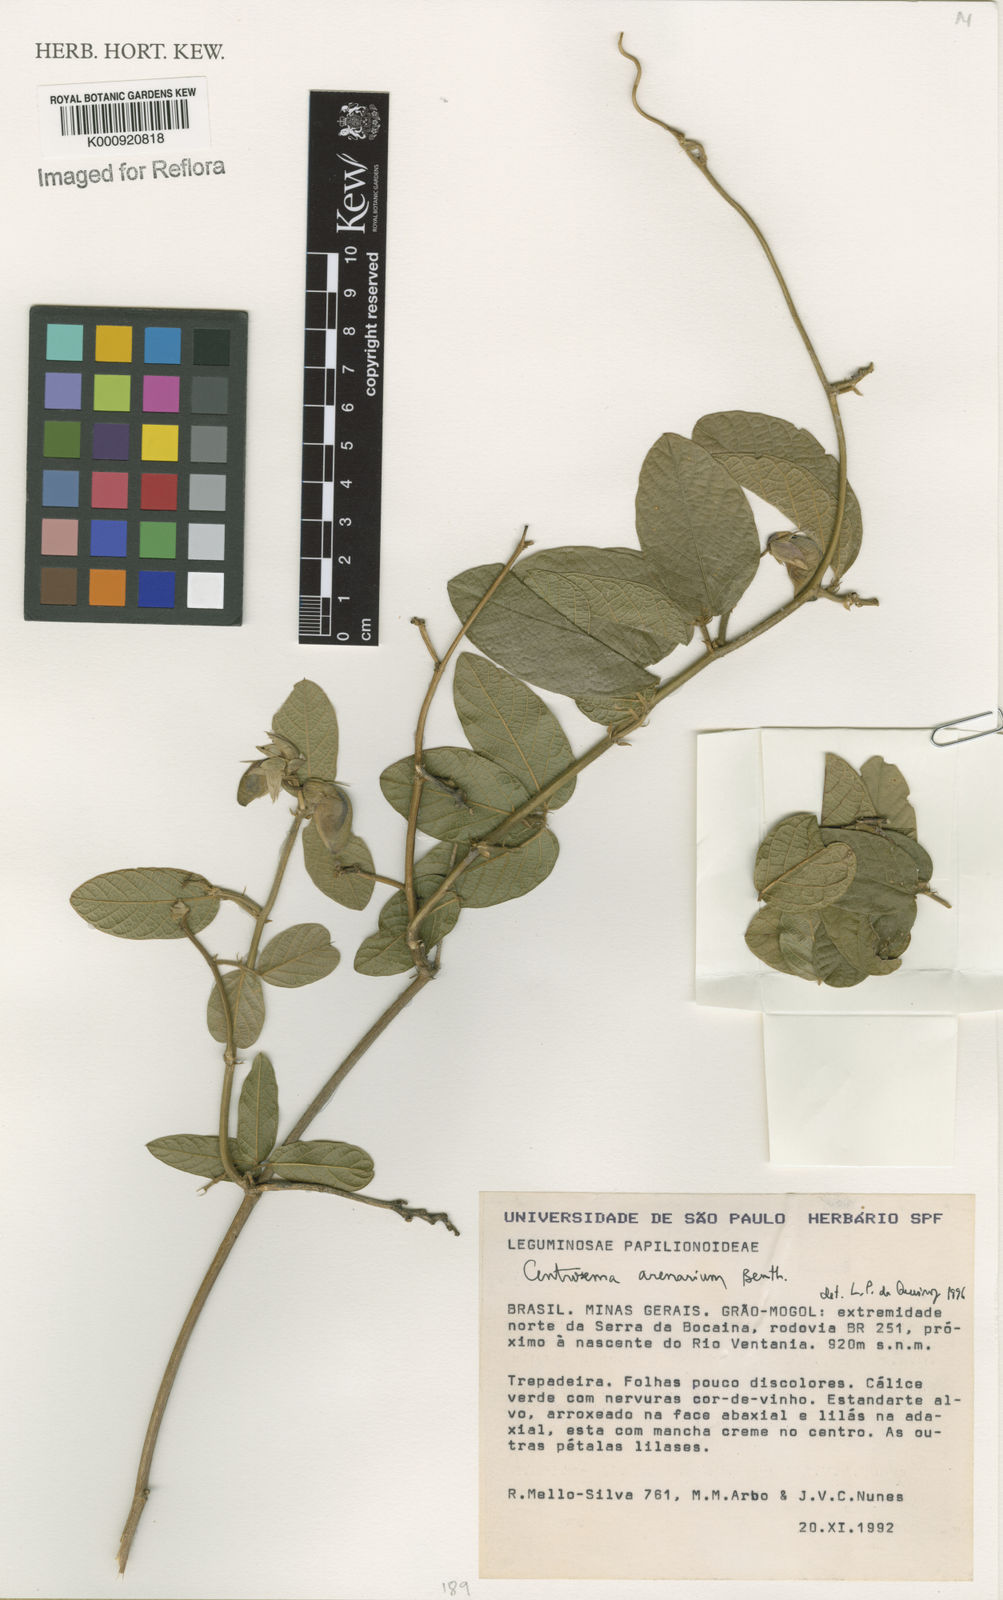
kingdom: Plantae
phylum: Tracheophyta
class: Magnoliopsida
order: Fabales
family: Fabaceae
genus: Centrosema
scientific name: Centrosema arenarium
